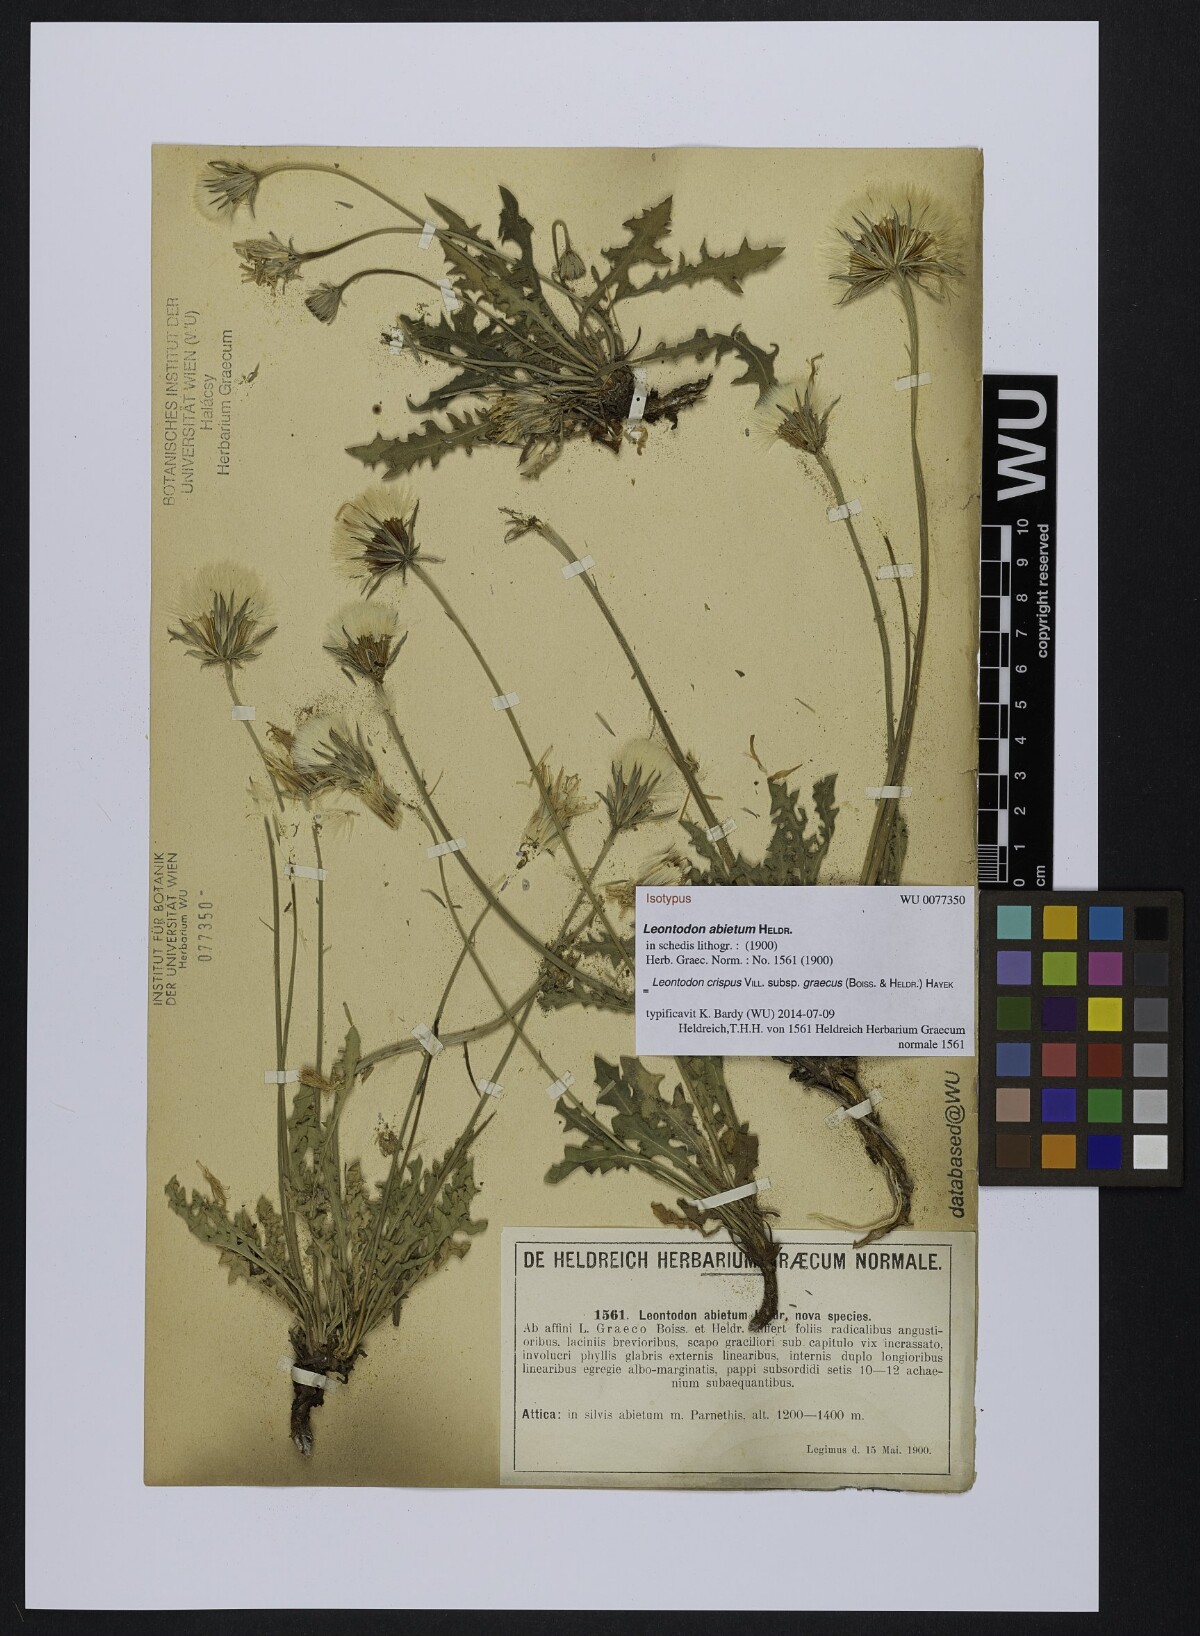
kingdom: Plantae
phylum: Tracheophyta
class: Magnoliopsida
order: Asterales
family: Asteraceae
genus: Leontodon
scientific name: Leontodon
